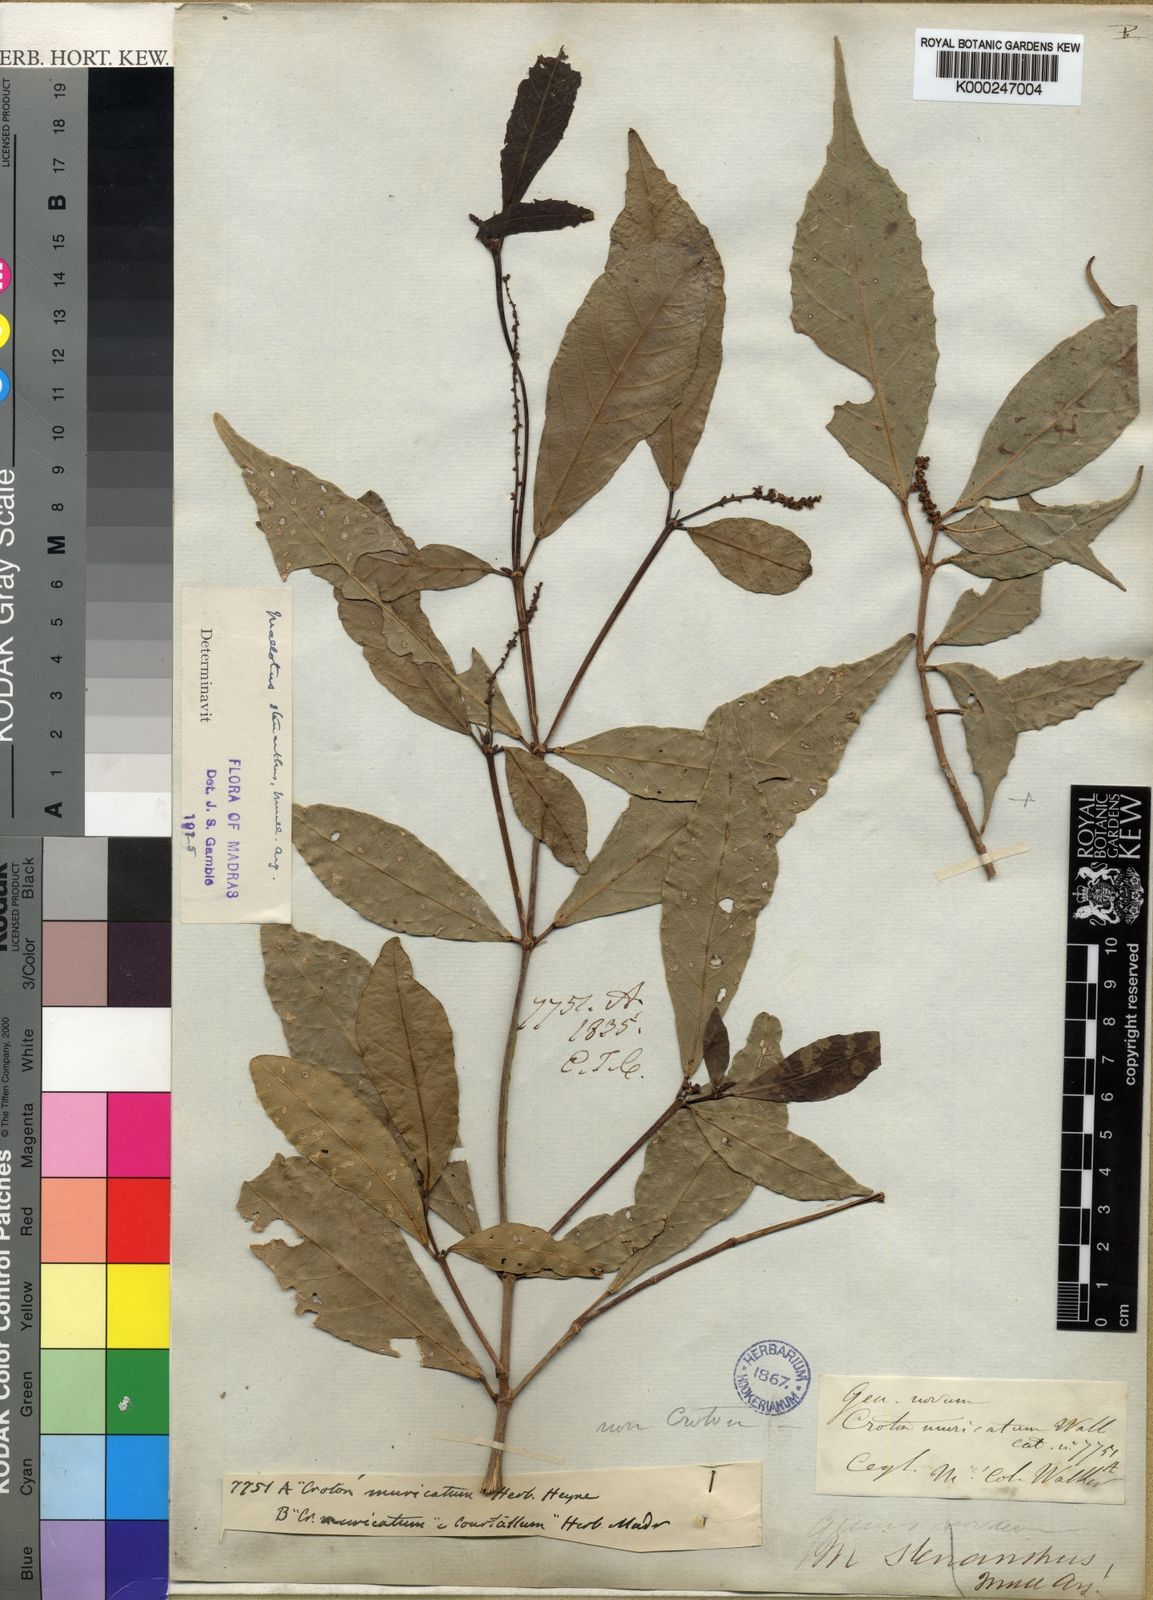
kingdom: Plantae
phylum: Tracheophyta
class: Magnoliopsida
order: Malpighiales
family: Euphorbiaceae
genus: Mallotus
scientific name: Mallotus resinosus
